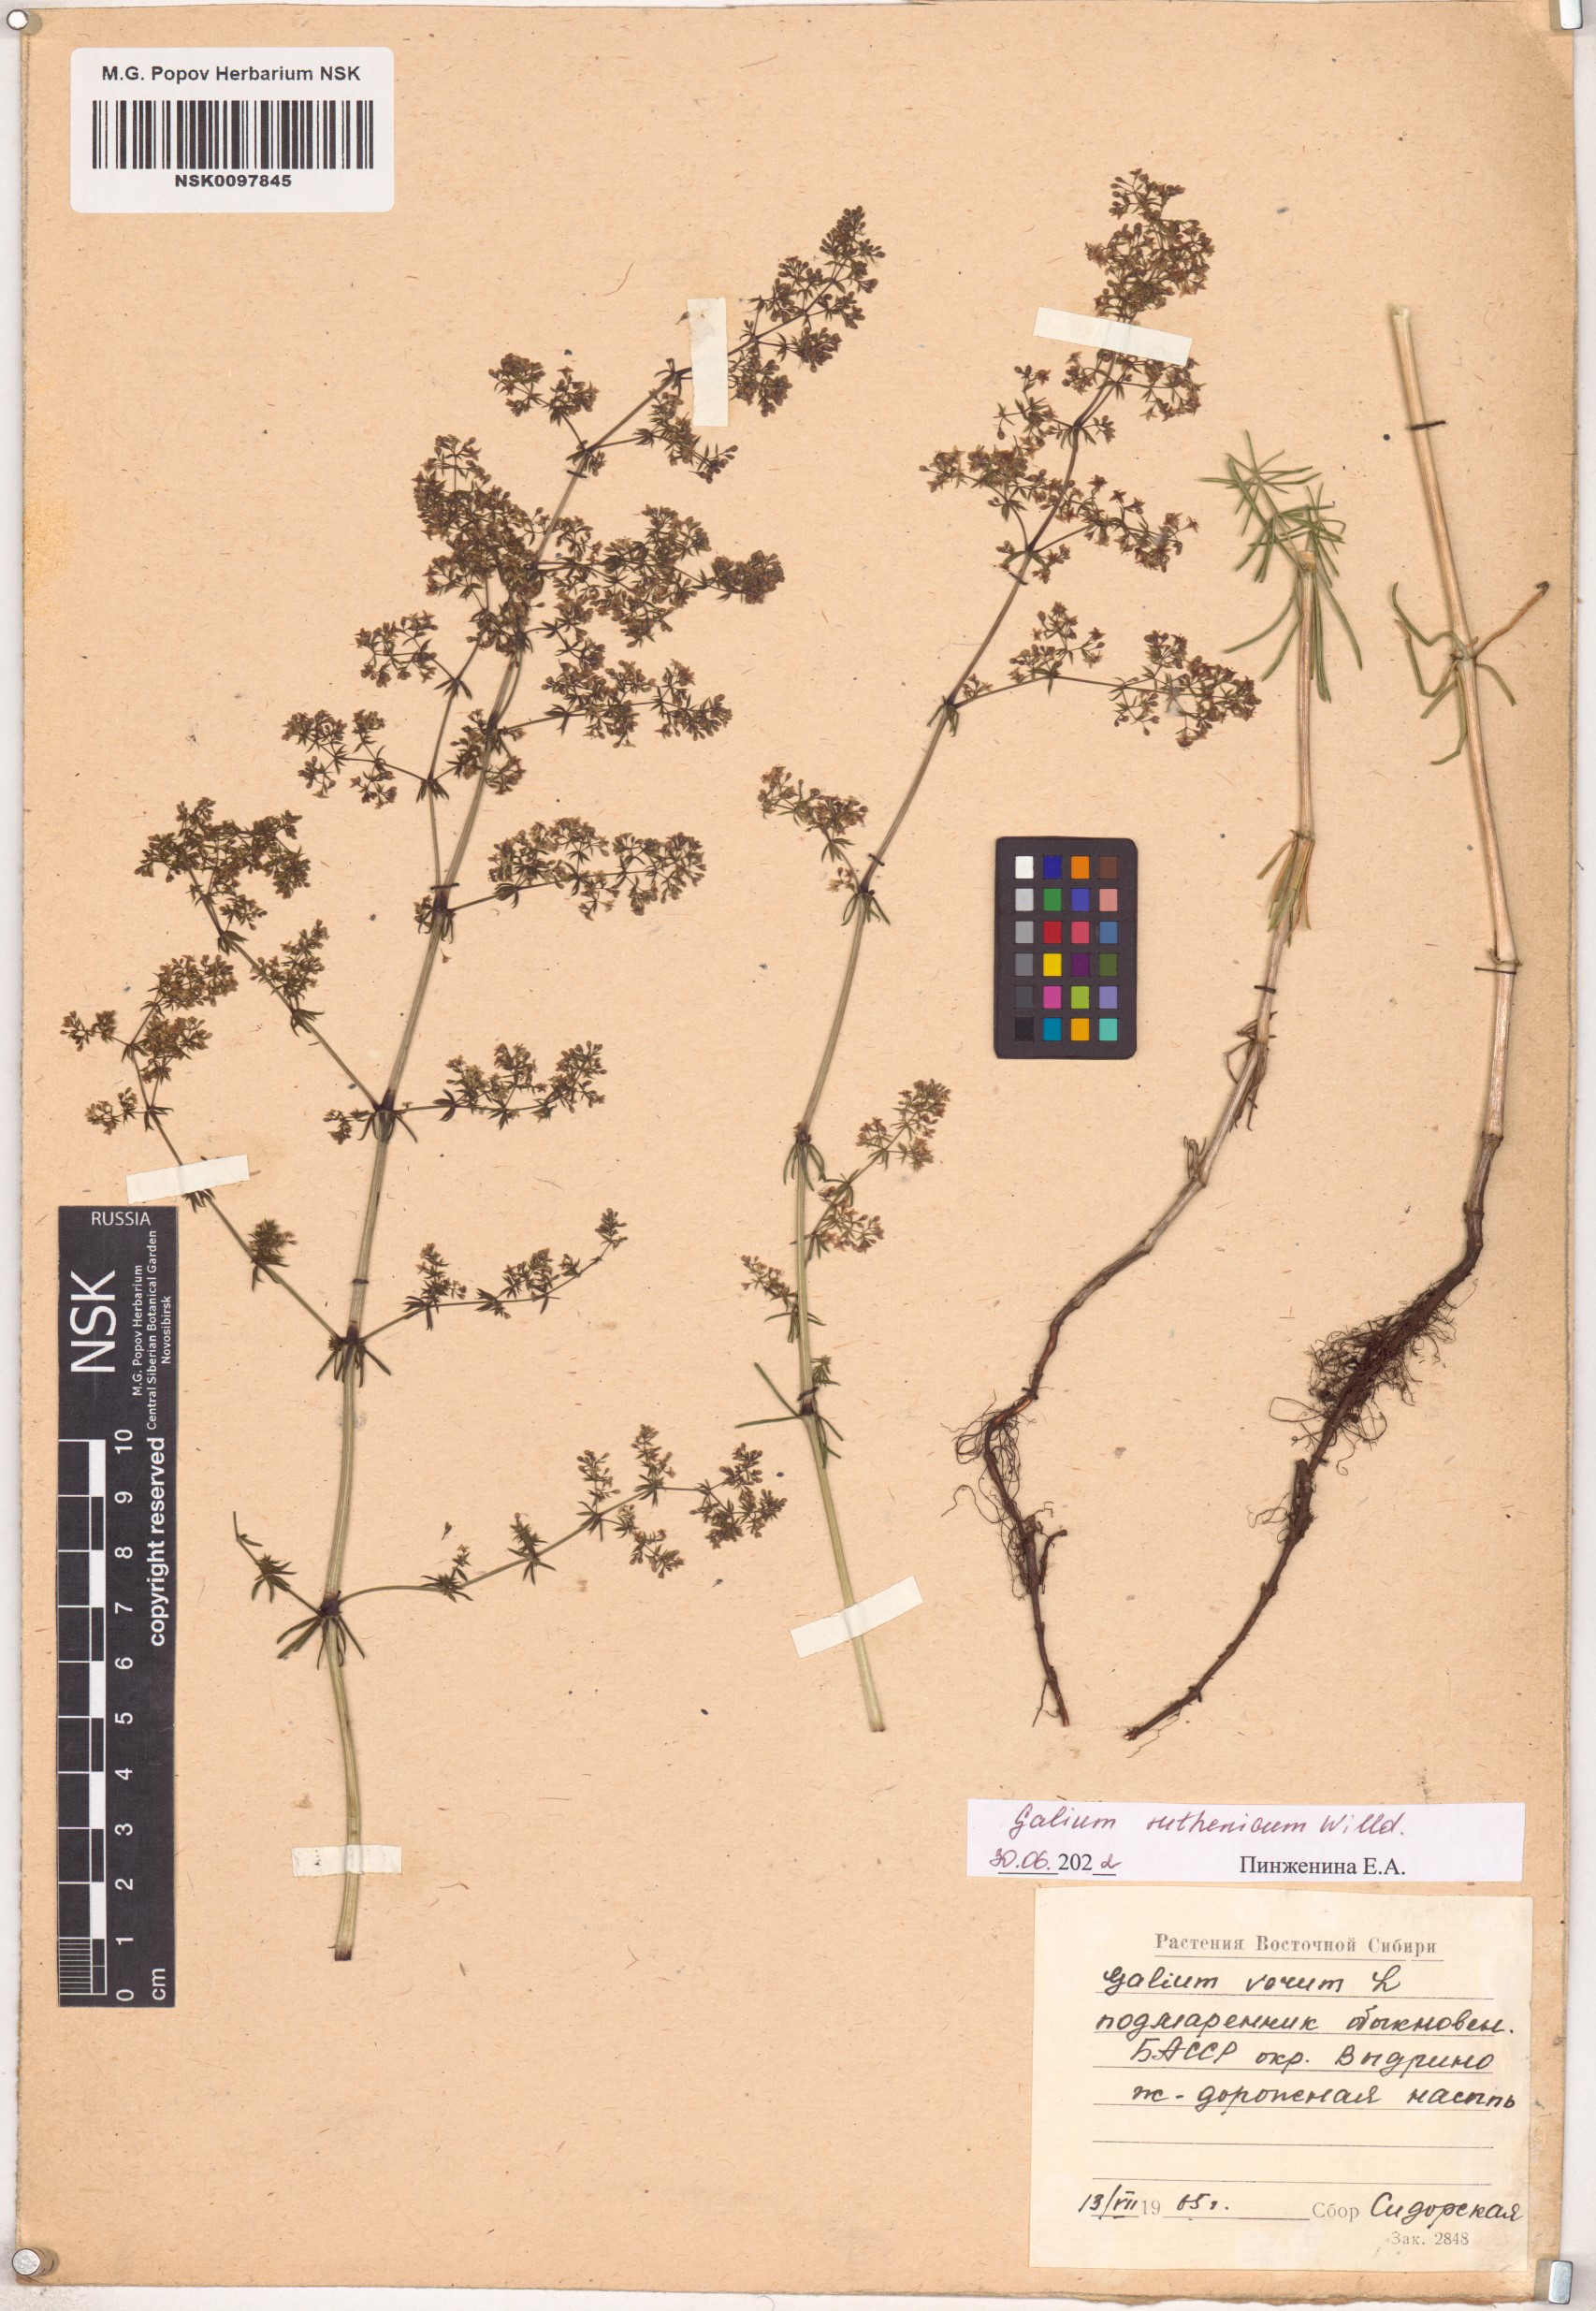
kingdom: Plantae
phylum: Tracheophyta
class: Magnoliopsida
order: Gentianales
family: Rubiaceae
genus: Galium
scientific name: Galium verum
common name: Lady's bedstraw
